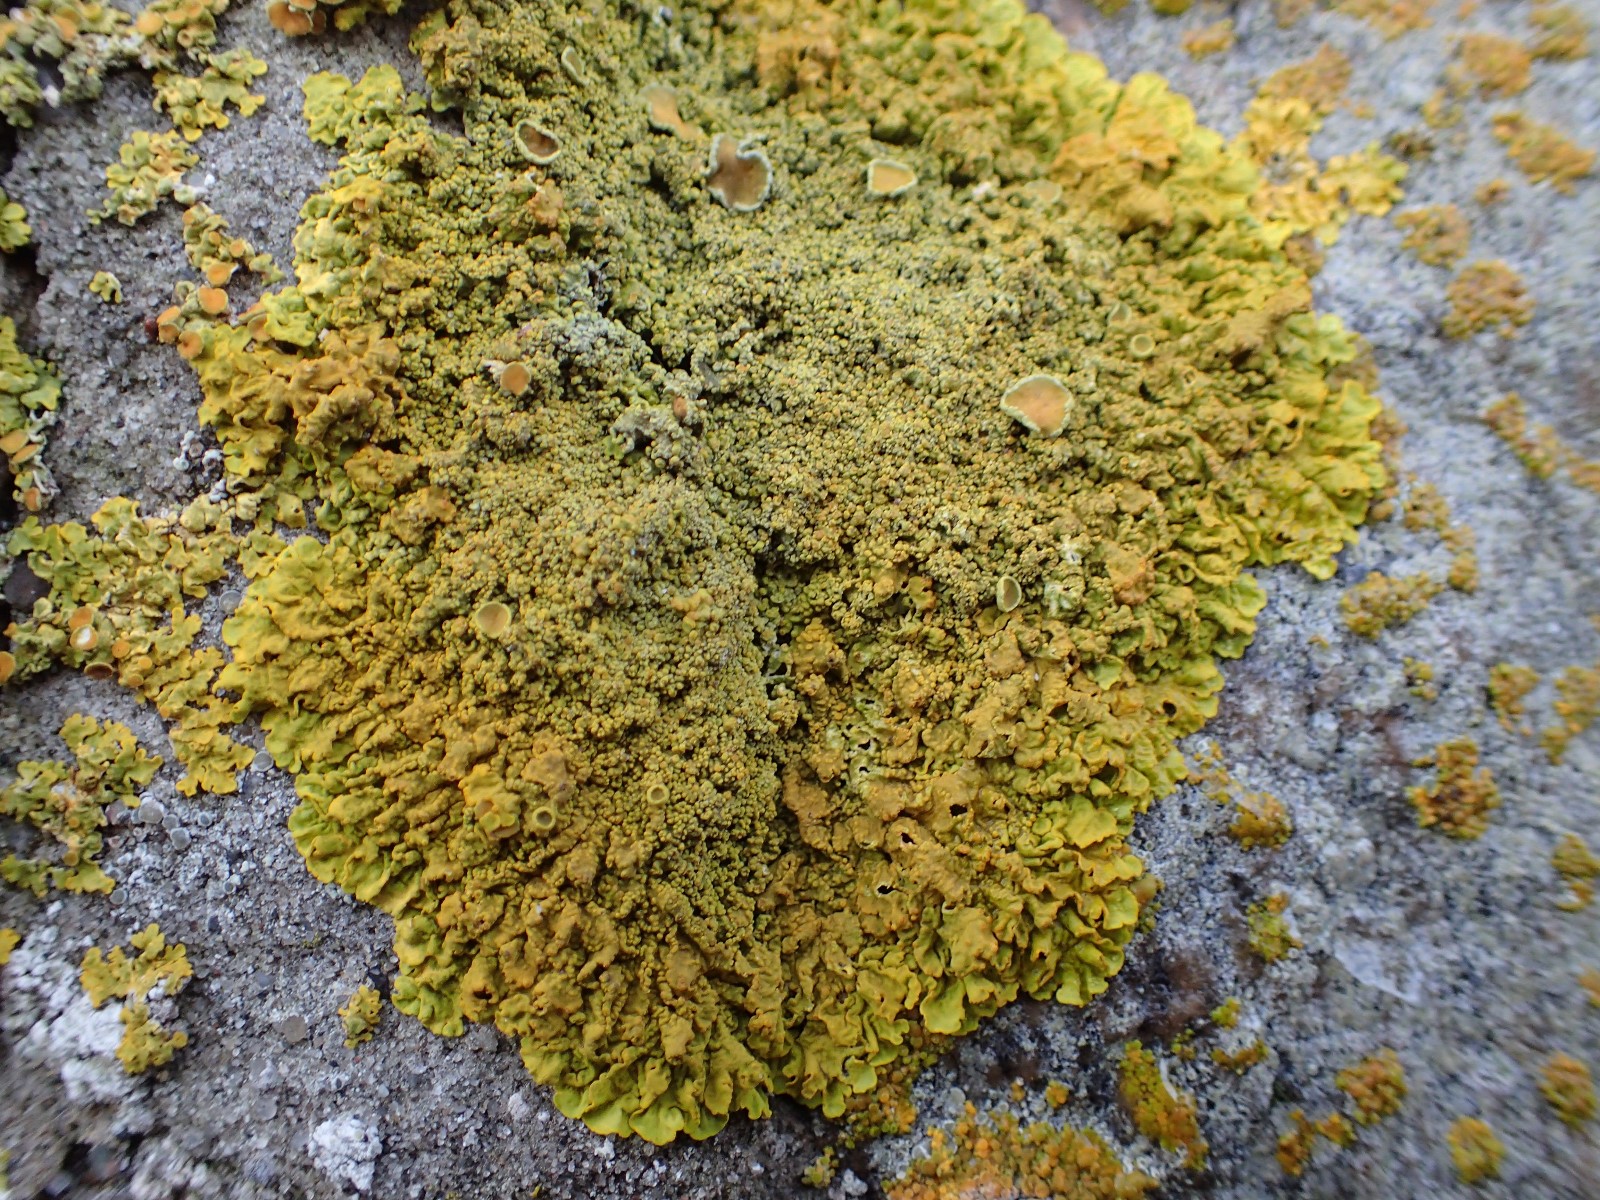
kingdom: Fungi
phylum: Ascomycota
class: Lecanoromycetes
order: Teloschistales
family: Teloschistaceae
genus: Xanthoria
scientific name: Xanthoria calcicola
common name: vortet væggelav
